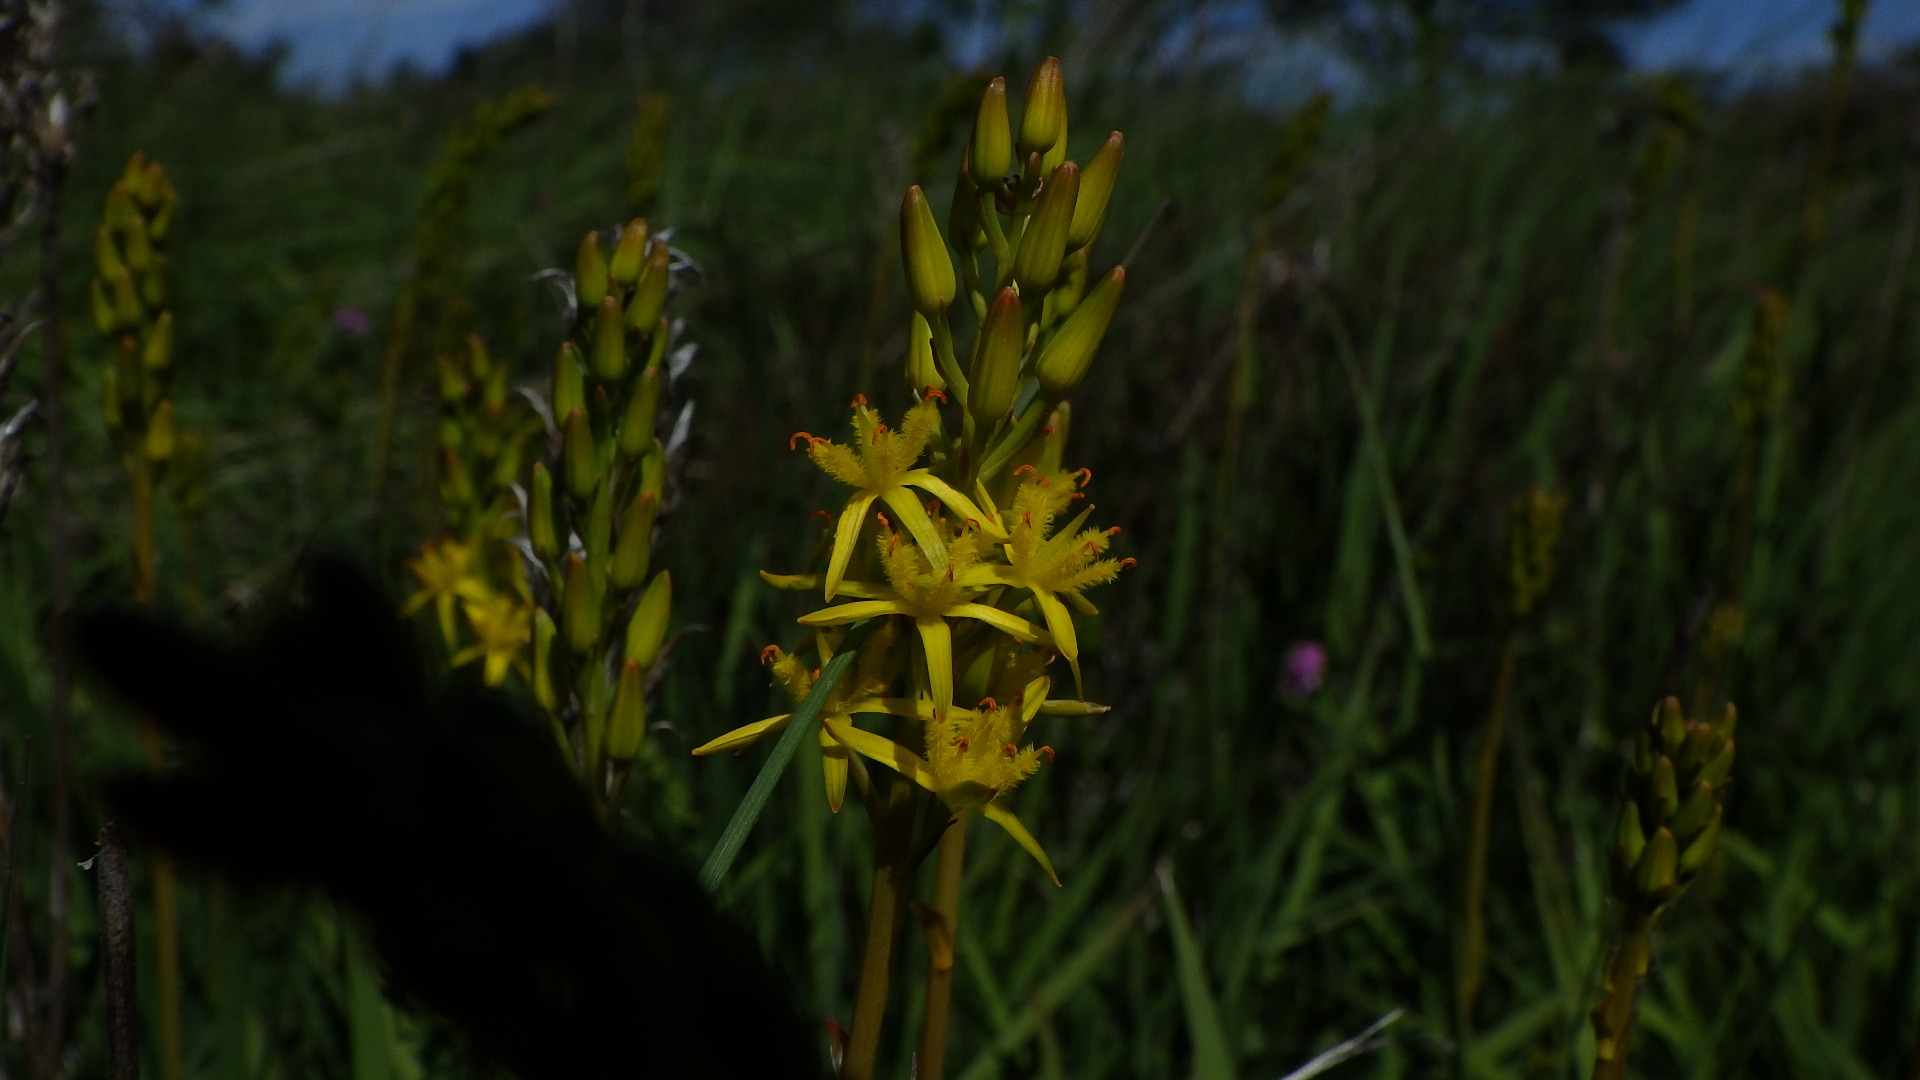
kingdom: Plantae
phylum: Tracheophyta
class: Liliopsida
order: Dioscoreales
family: Nartheciaceae
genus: Narthecium
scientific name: Narthecium ossifragum
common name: Benbræk
